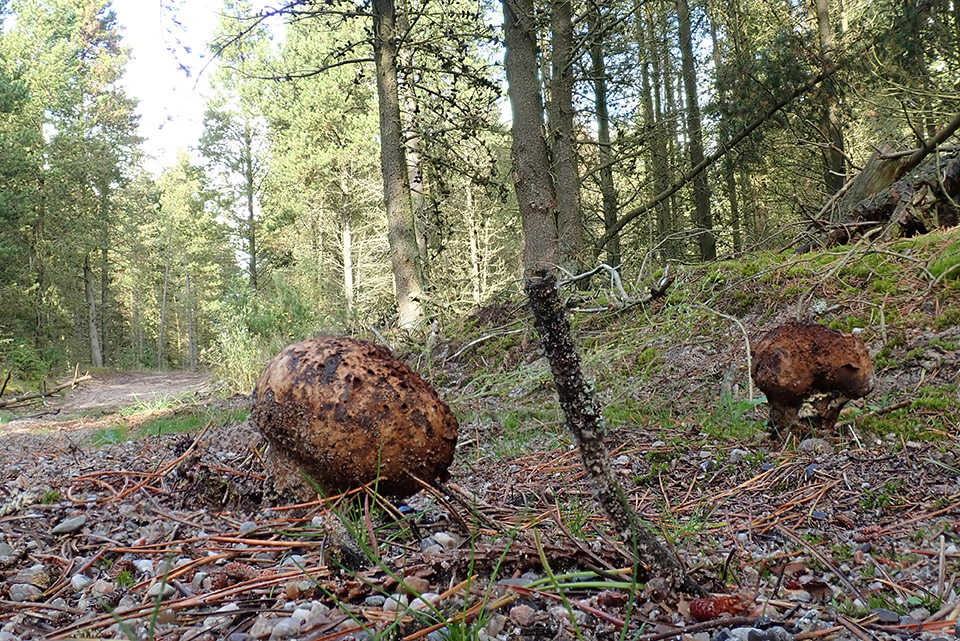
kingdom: Fungi
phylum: Basidiomycota
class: Agaricomycetes
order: Boletales
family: Sclerodermataceae
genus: Pisolithus
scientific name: Pisolithus capsulifer
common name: farvebold
